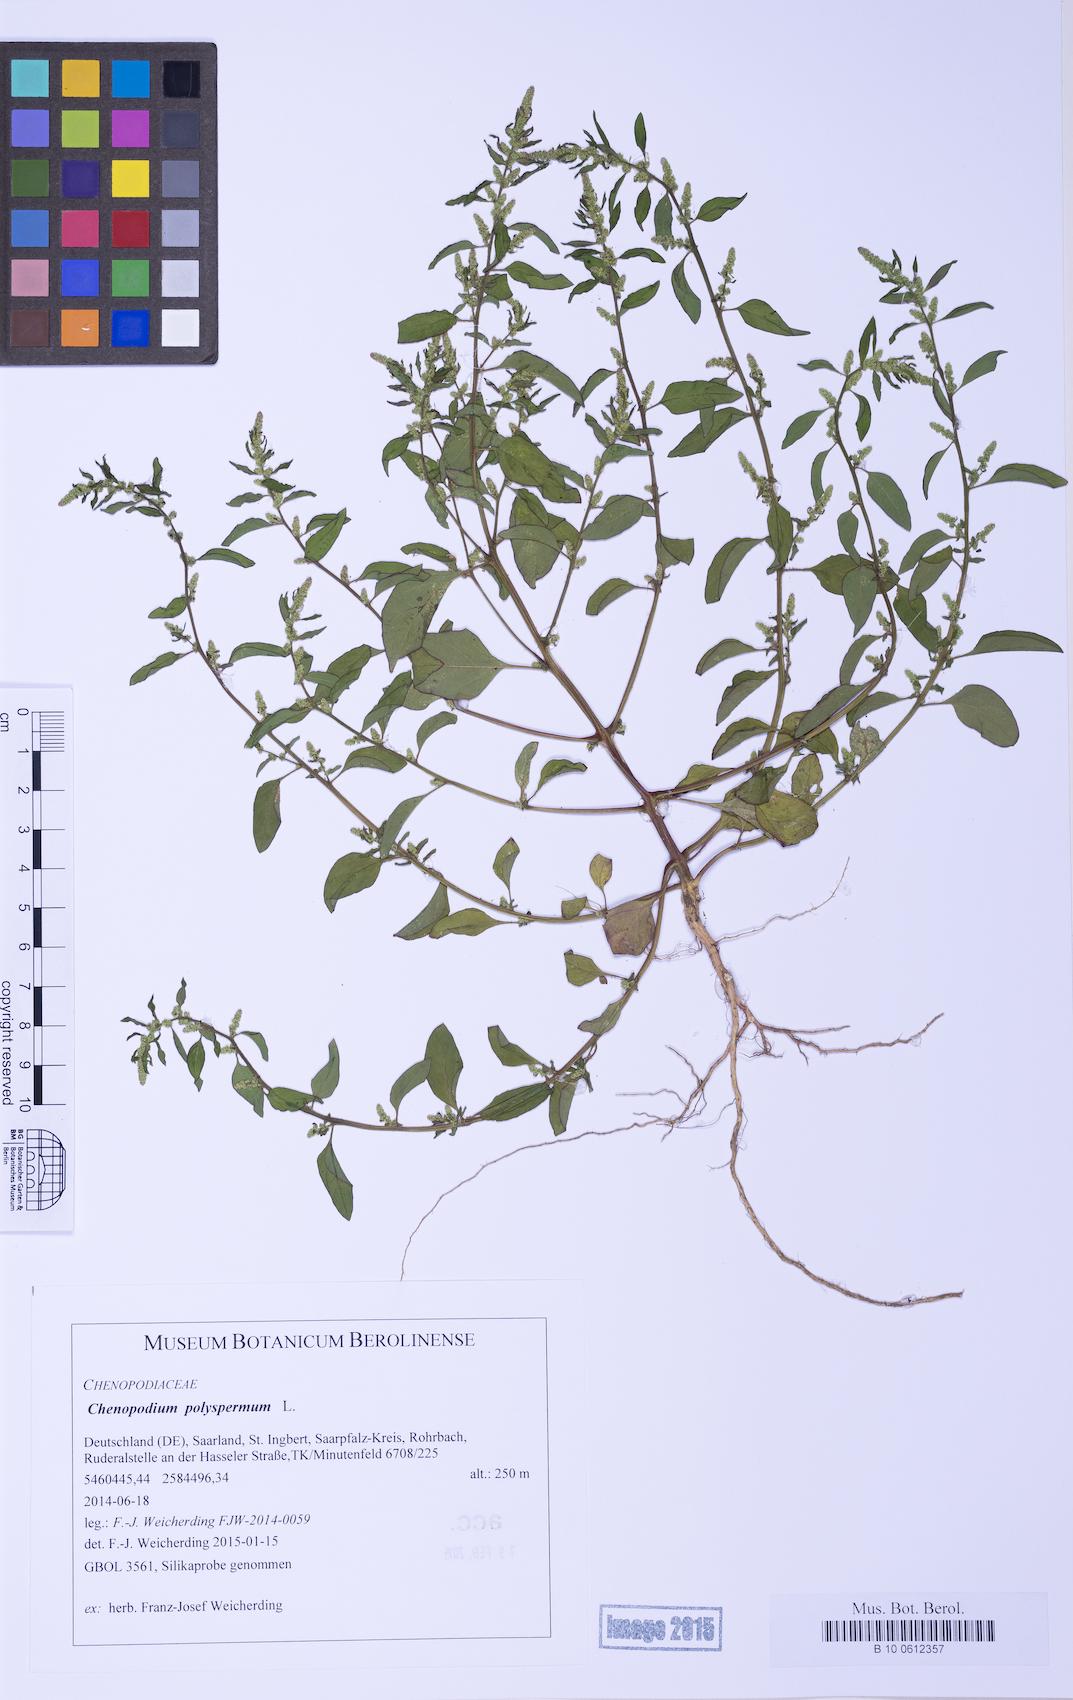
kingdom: Plantae
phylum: Tracheophyta
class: Magnoliopsida
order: Caryophyllales
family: Amaranthaceae
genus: Lipandra
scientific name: Lipandra polysperma
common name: Many-seed goosefoot
